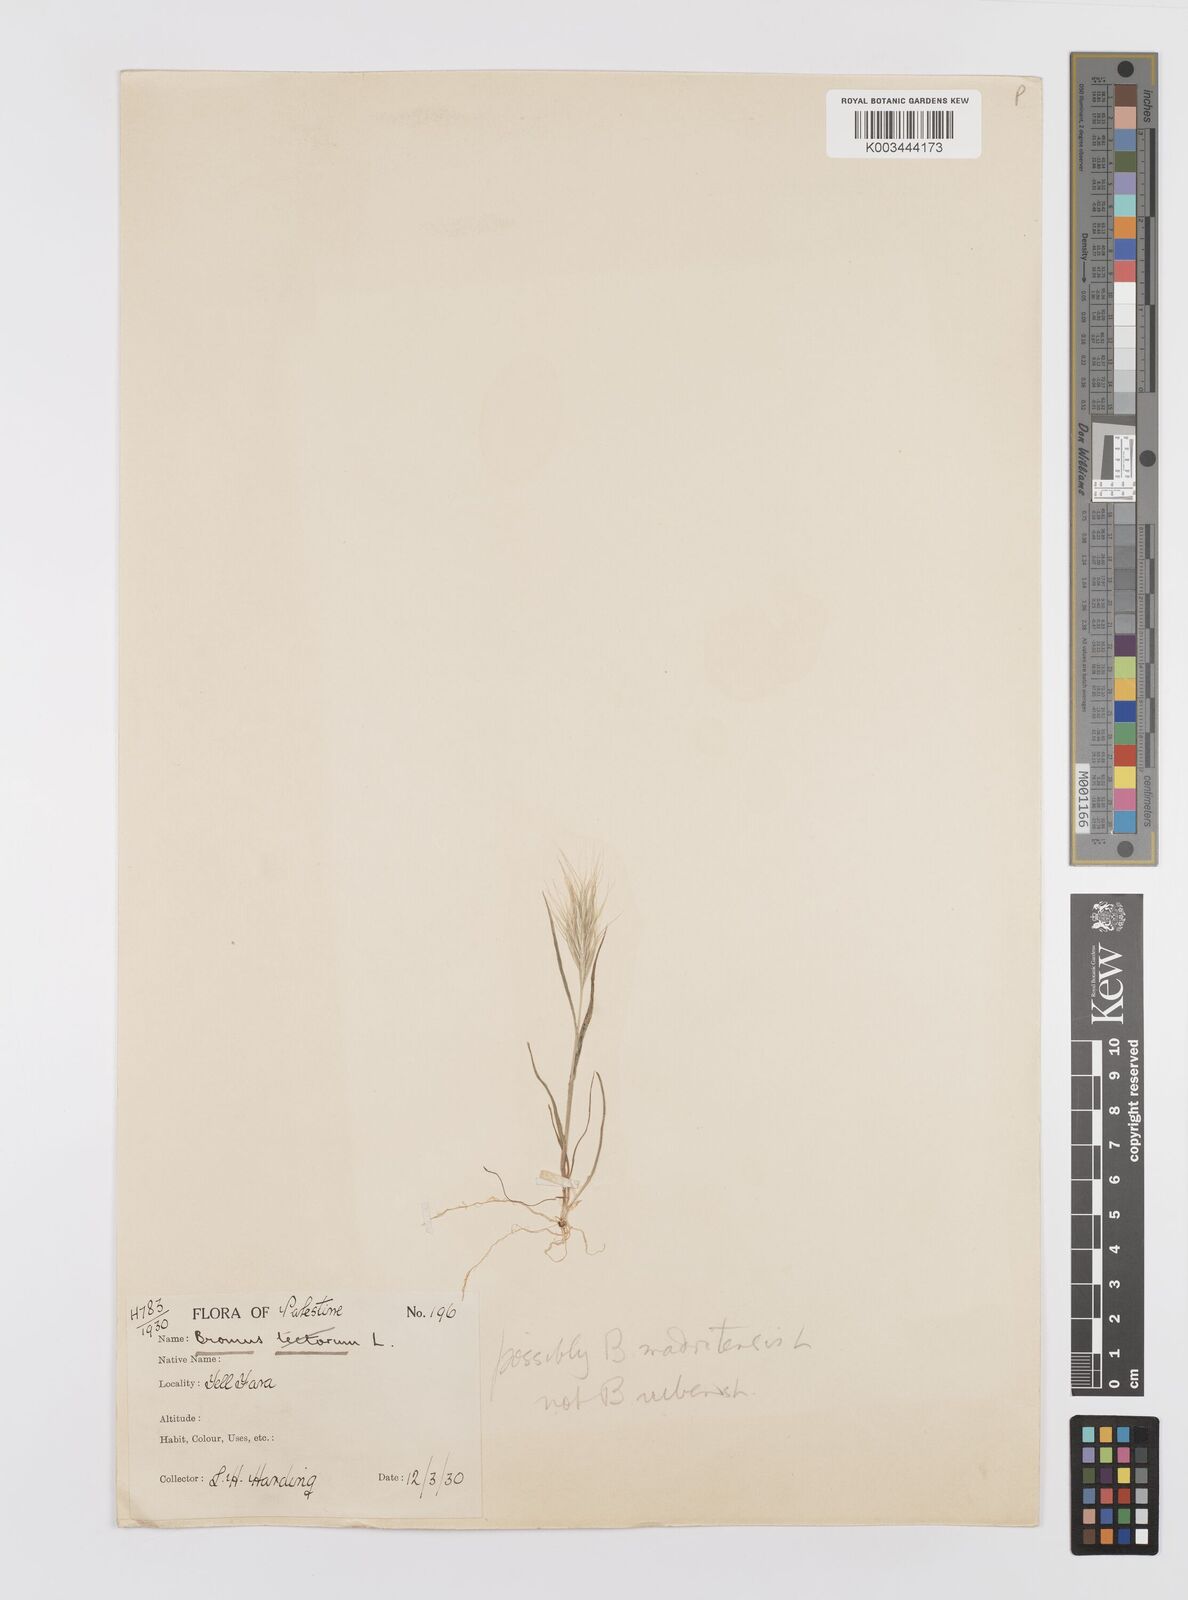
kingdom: Plantae
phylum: Tracheophyta
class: Liliopsida
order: Poales
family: Poaceae
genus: Bromus
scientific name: Bromus madritensis
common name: Compact brome
